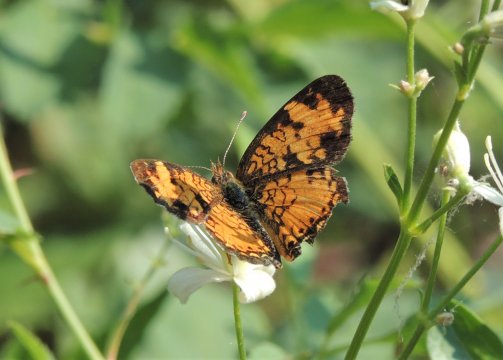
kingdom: Animalia
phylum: Arthropoda
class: Insecta
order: Lepidoptera
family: Nymphalidae
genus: Phyciodes
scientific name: Phyciodes tharos
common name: Northern Crescent
